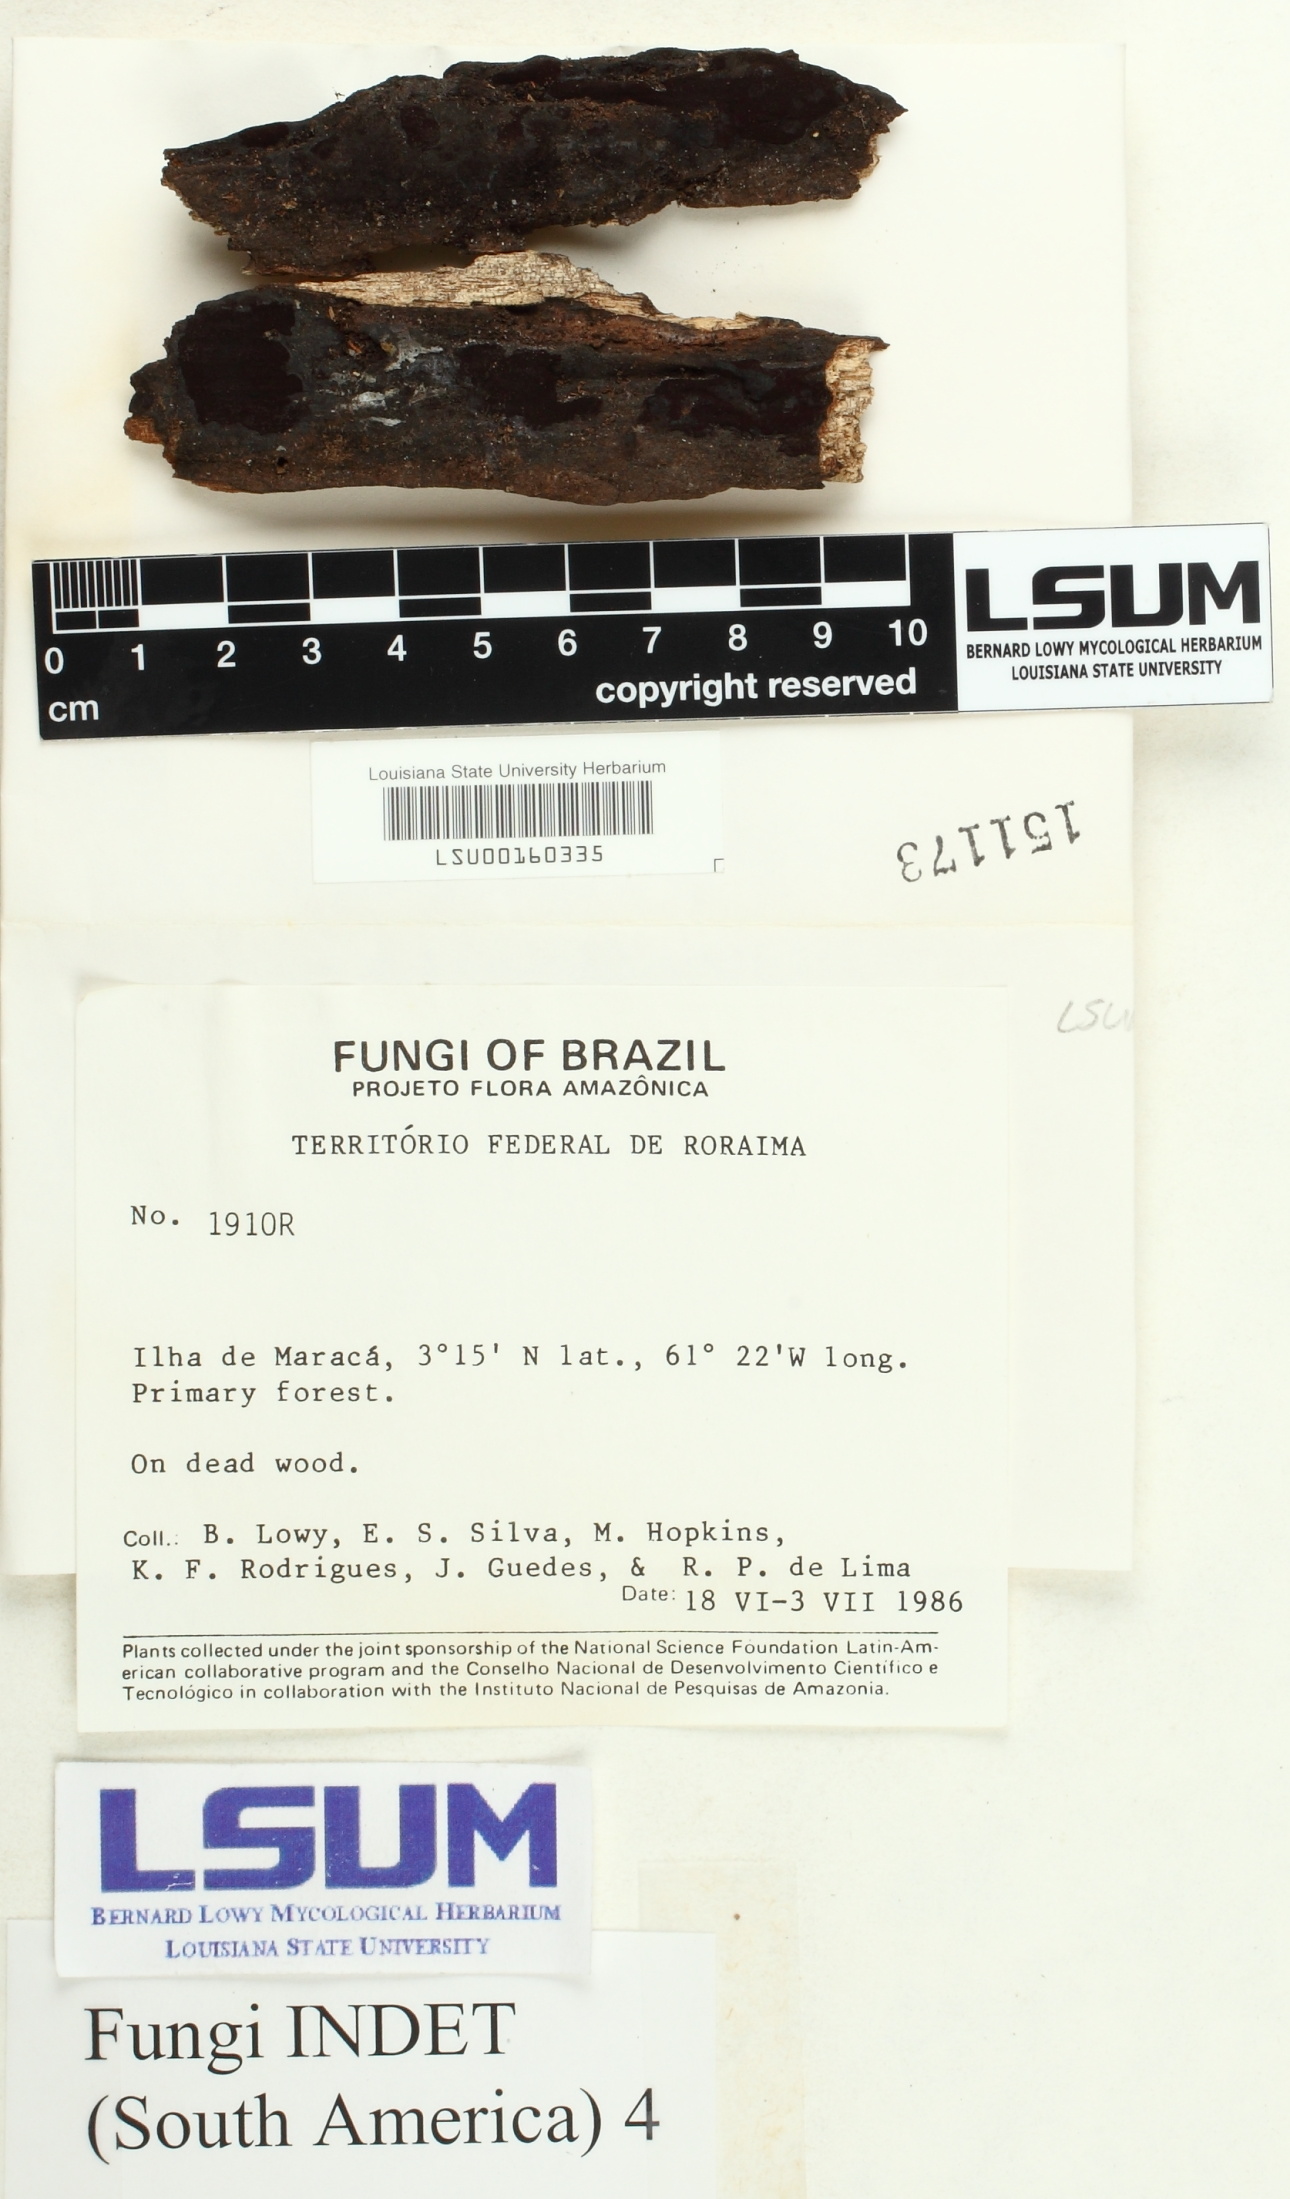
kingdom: Fungi
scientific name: Fungi
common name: Fungi
